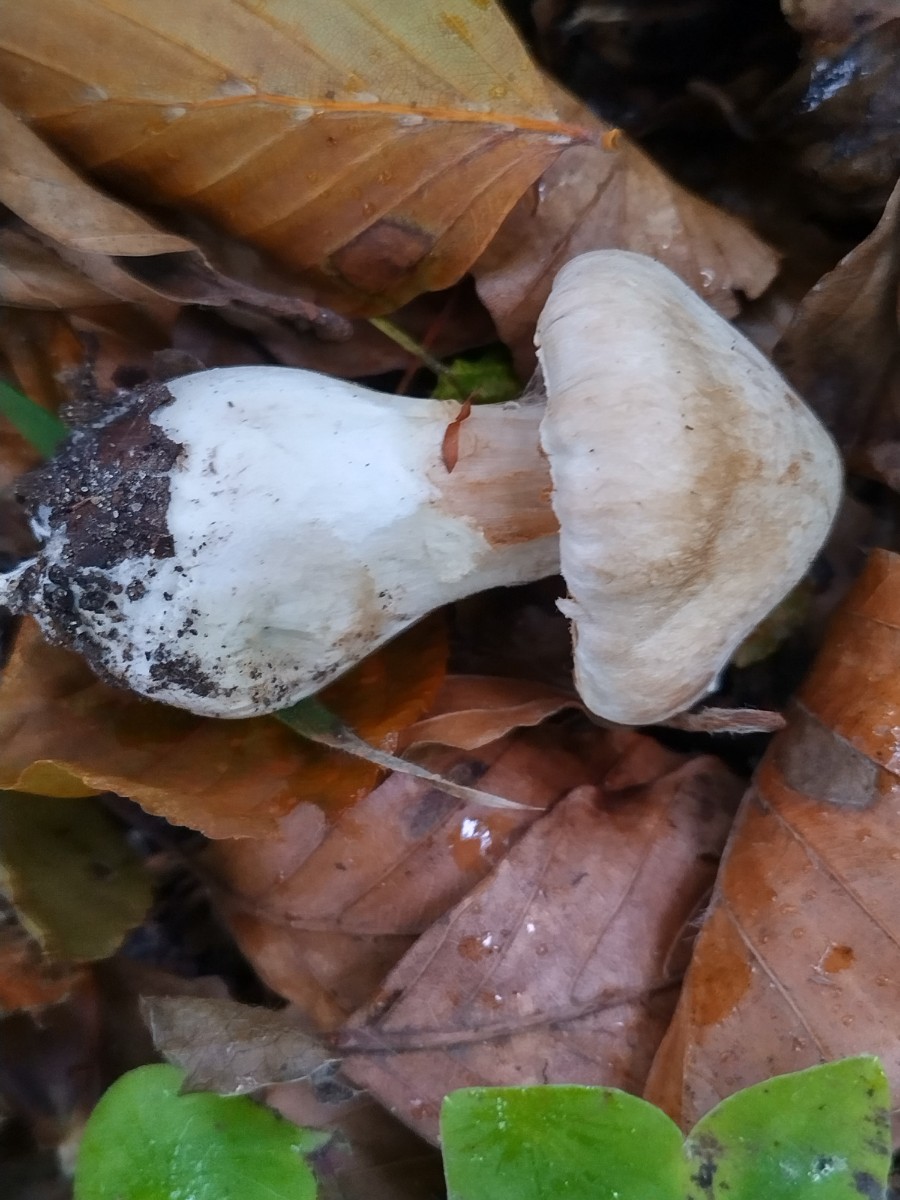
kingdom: Fungi
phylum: Basidiomycota
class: Agaricomycetes
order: Agaricales
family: Cortinariaceae
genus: Cortinarius
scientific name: Cortinarius urbicus
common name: sølv-slørhat
